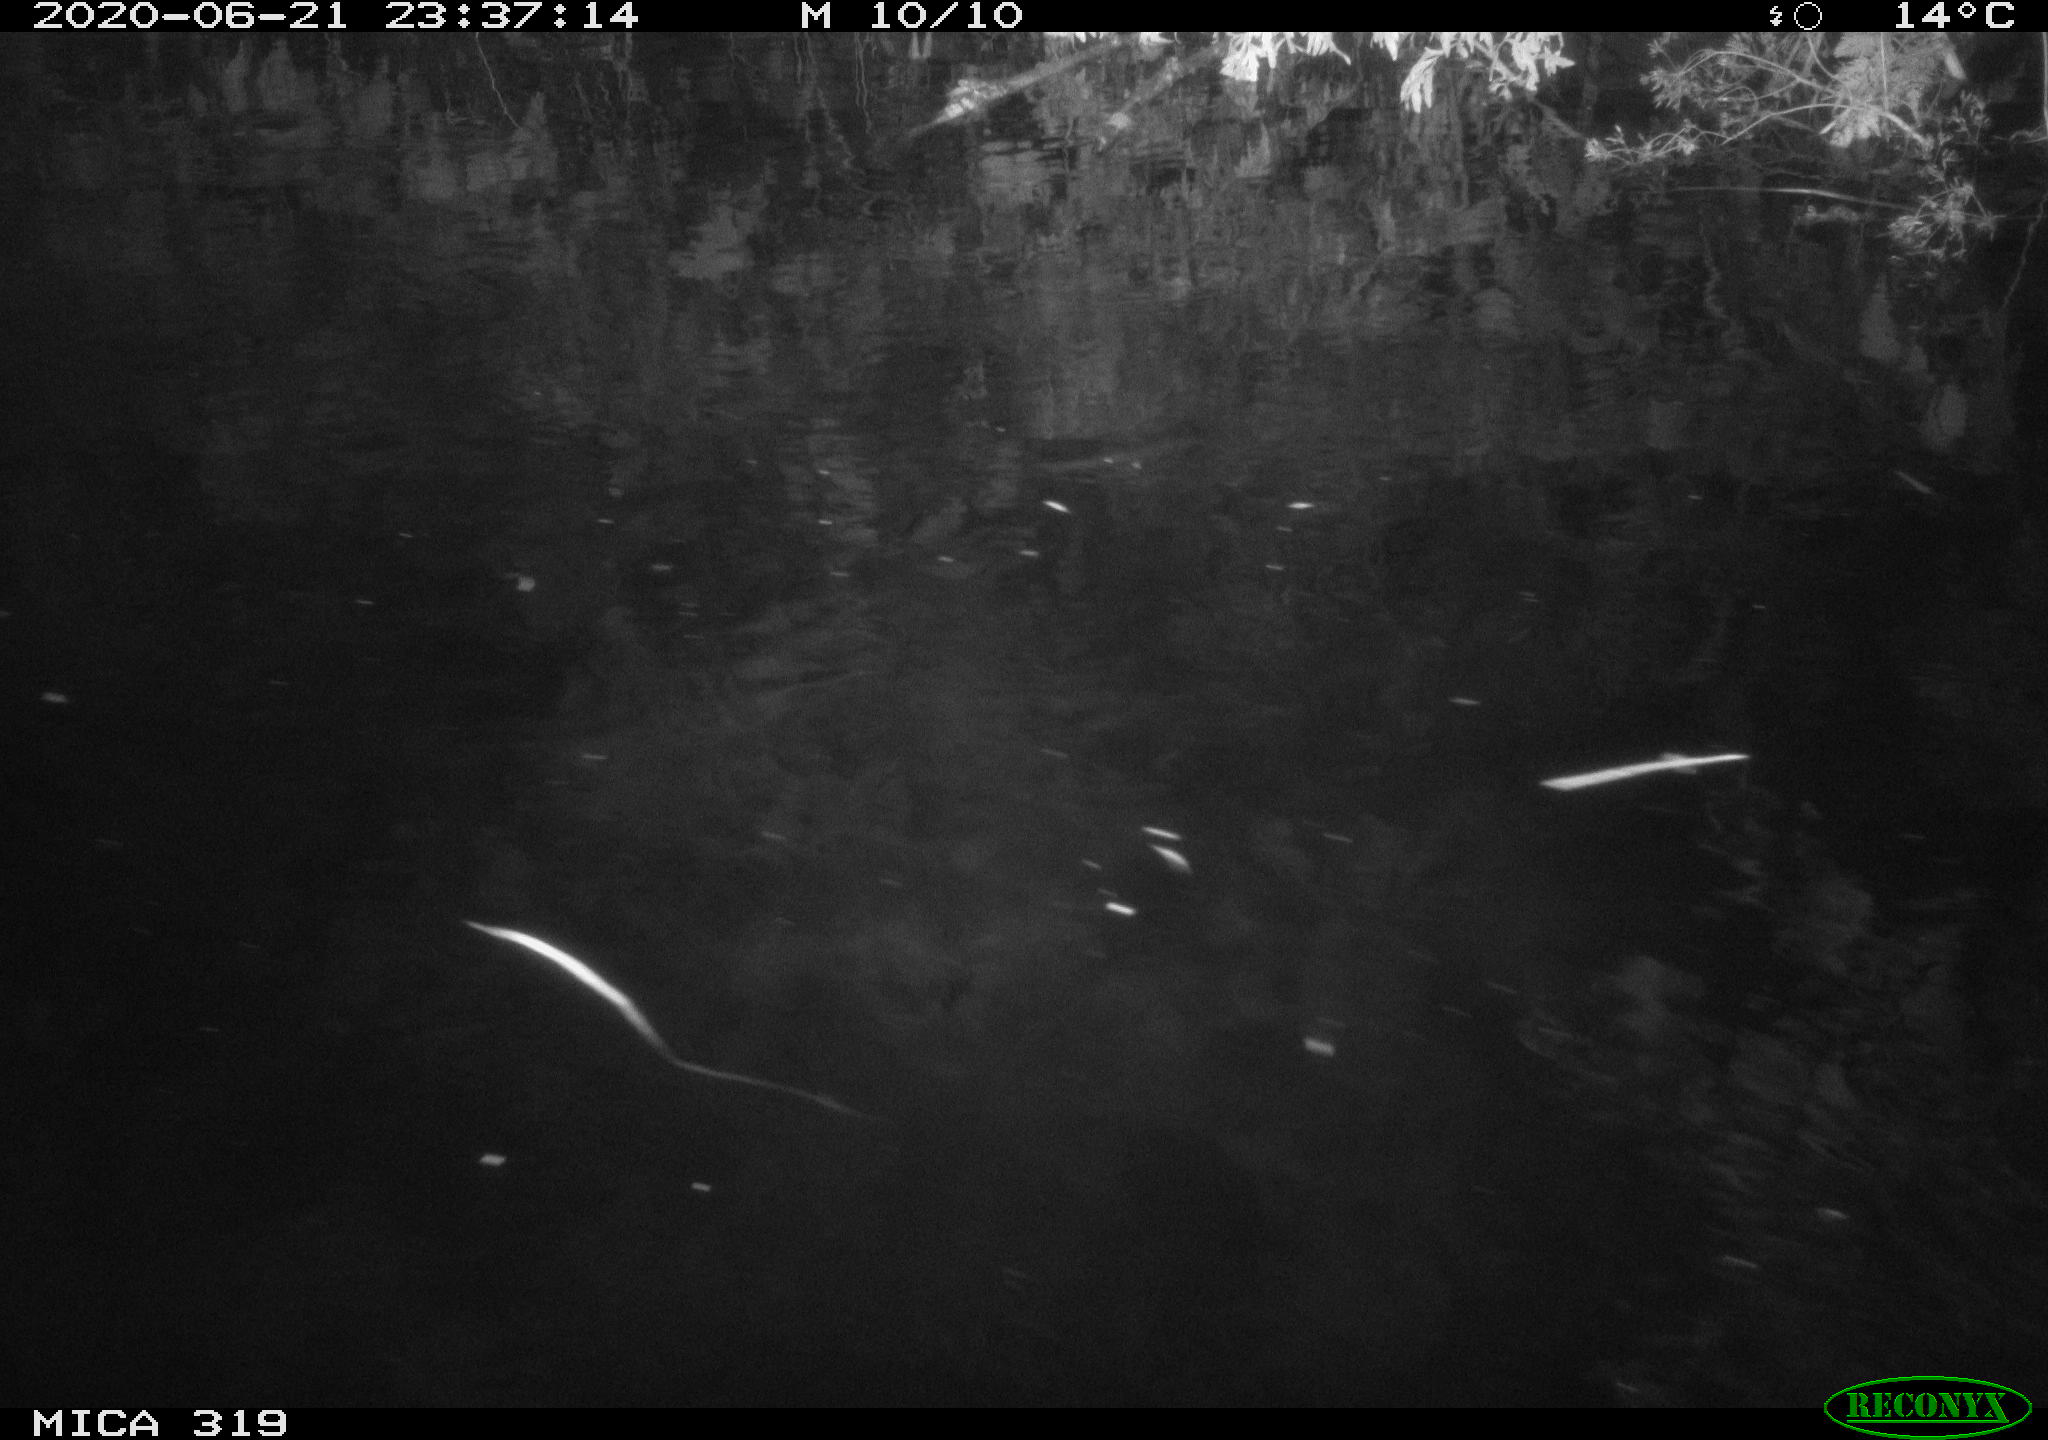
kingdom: Animalia
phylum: Chordata
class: Aves
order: Anseriformes
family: Anatidae
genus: Anas
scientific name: Anas platyrhynchos
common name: Mallard
